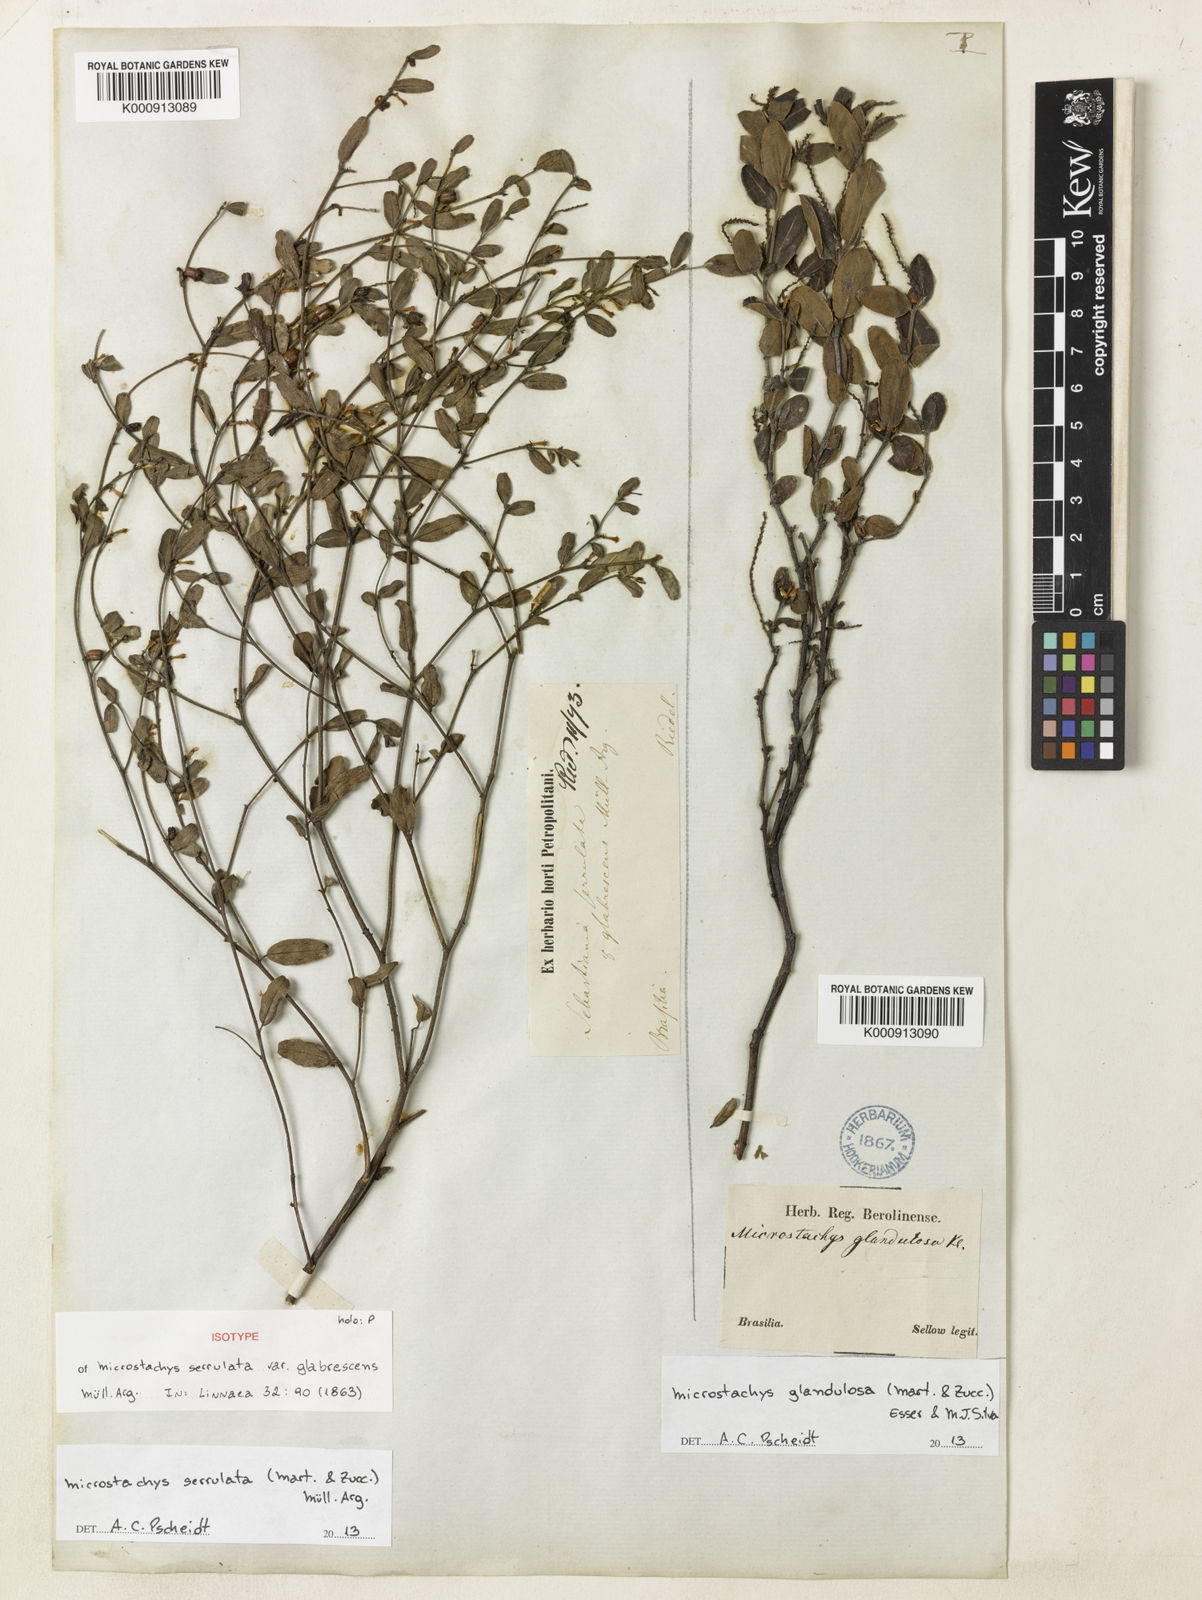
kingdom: Plantae
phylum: Tracheophyta
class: Magnoliopsida
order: Malpighiales
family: Euphorbiaceae
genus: Microstachys
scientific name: Microstachys
